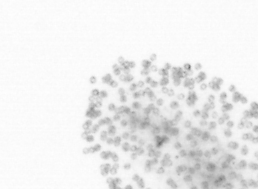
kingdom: Chromista
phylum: Ochrophyta
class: Bacillariophyceae
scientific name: Bacillariophyceae
